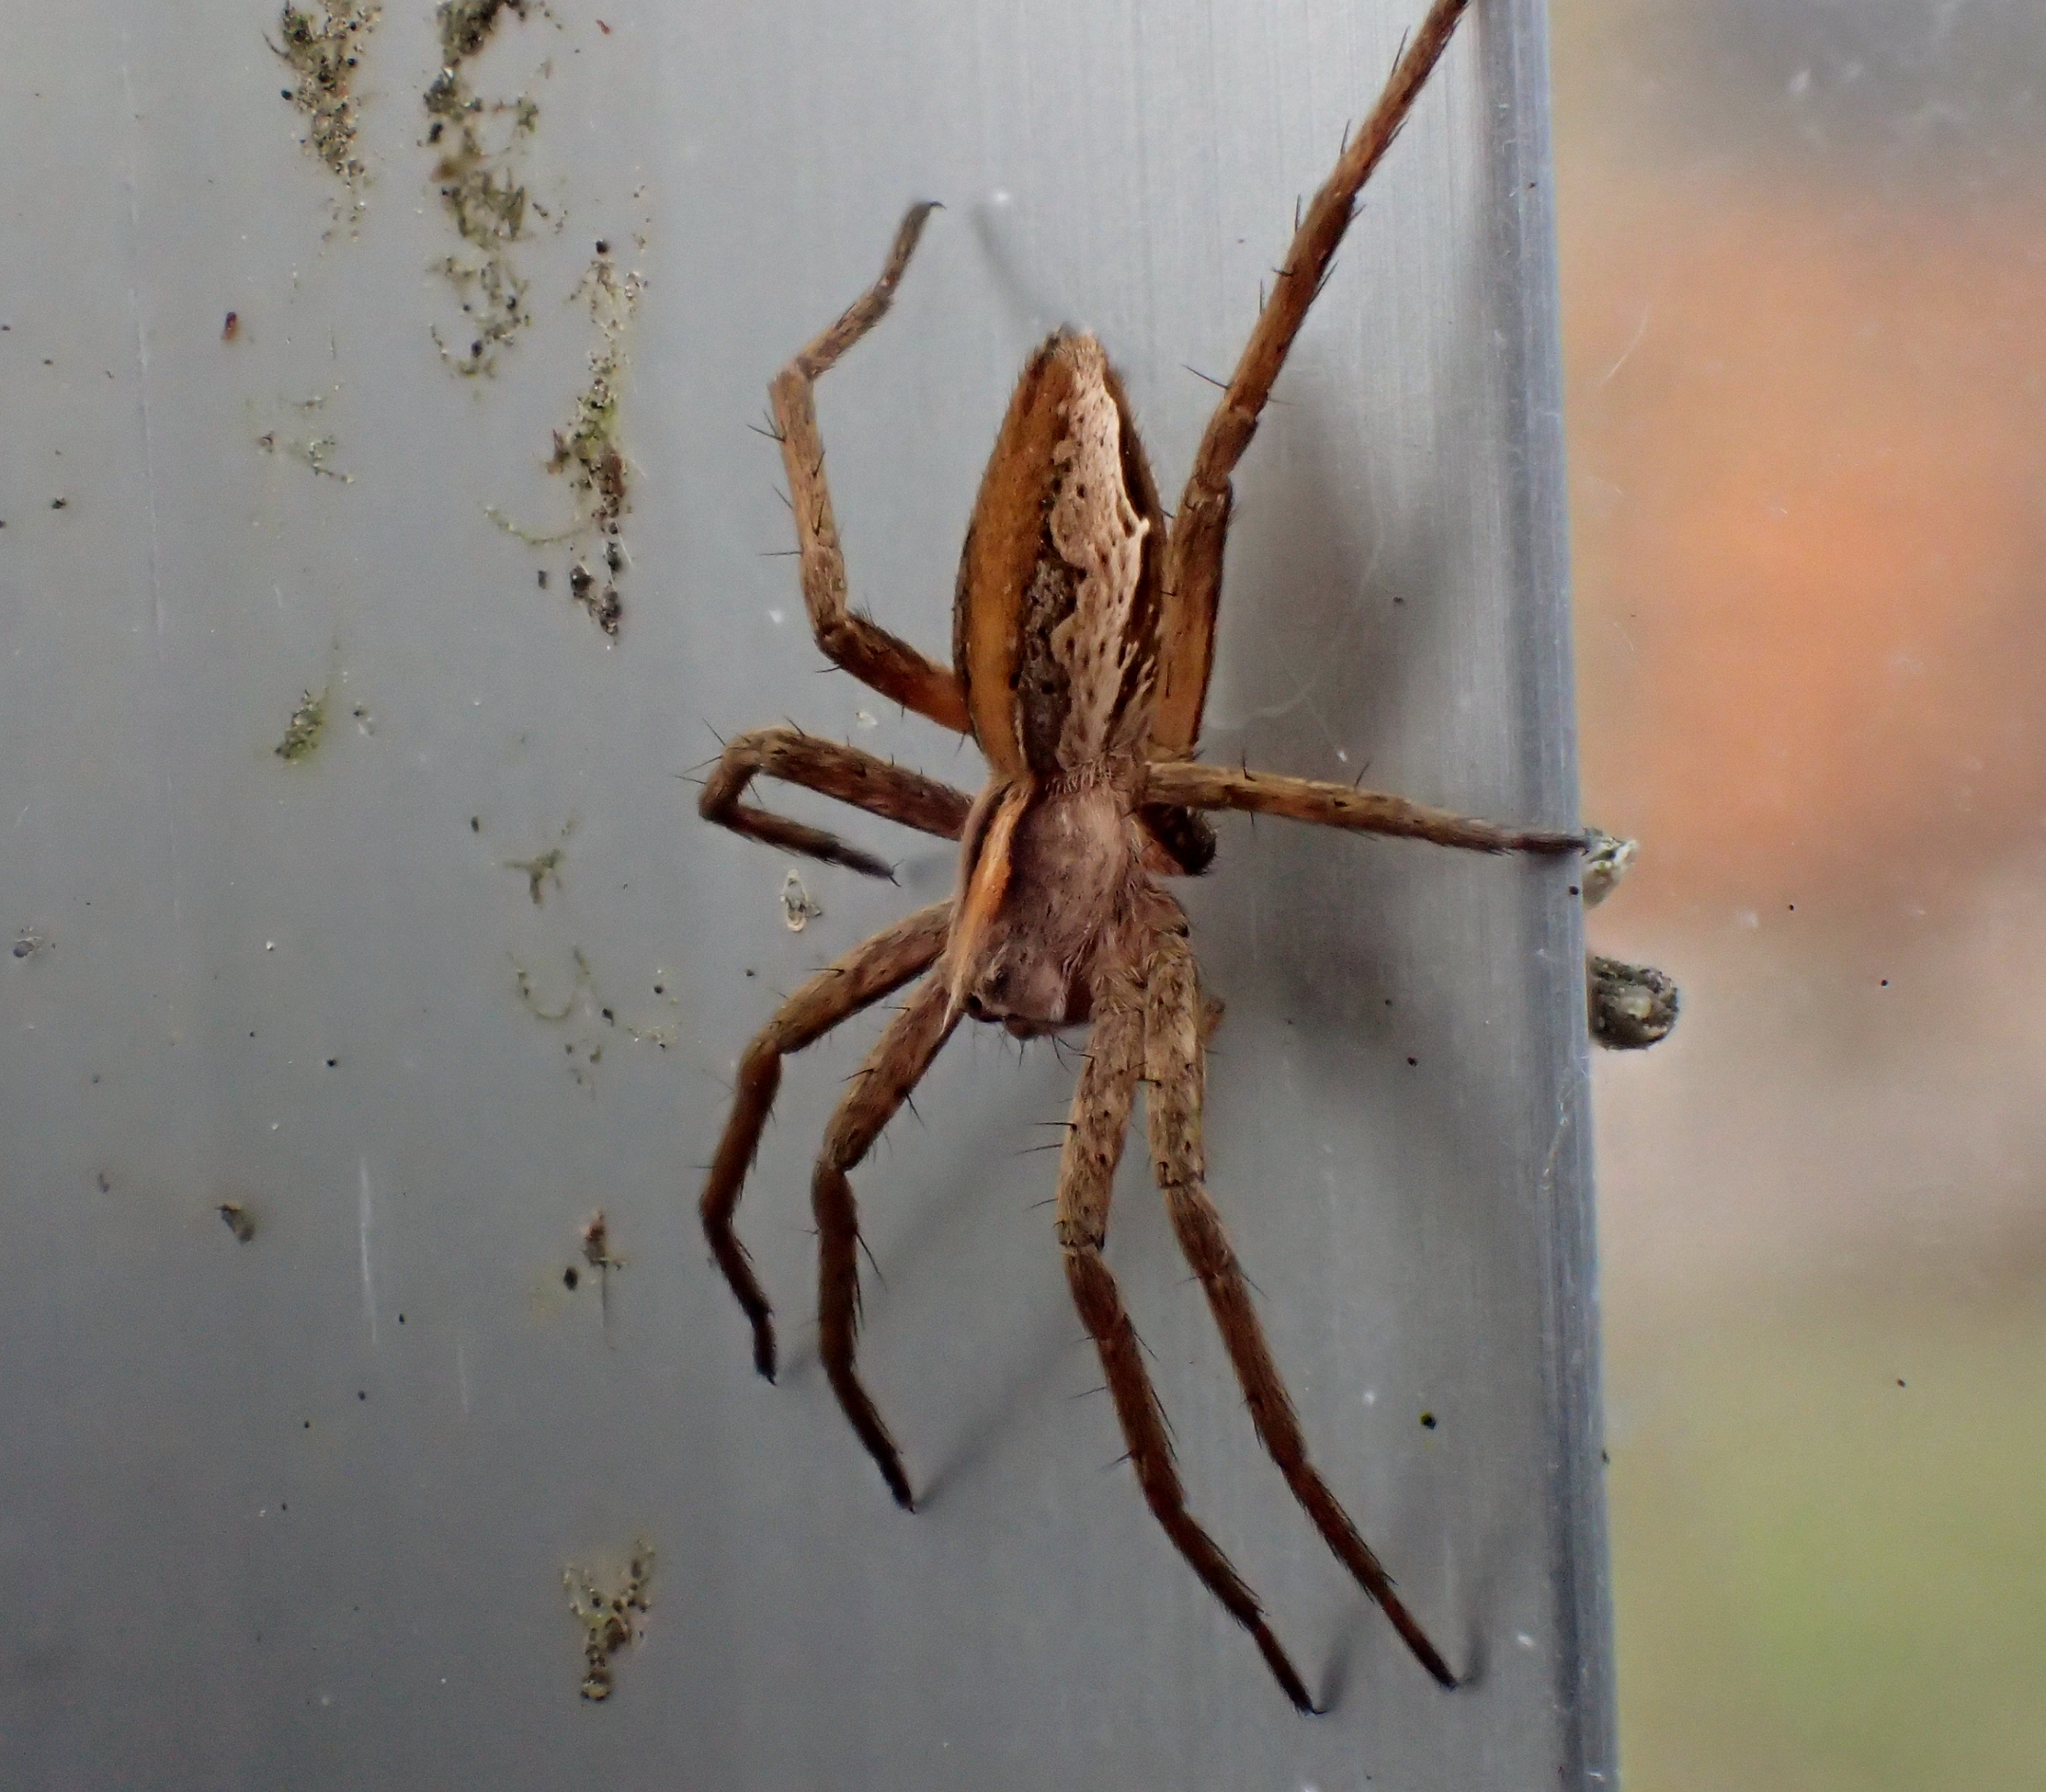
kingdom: Animalia
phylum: Arthropoda
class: Arachnida
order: Araneae
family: Pisauridae
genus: Pisaura
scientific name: Pisaura mirabilis
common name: Almindelig rovedderkop
